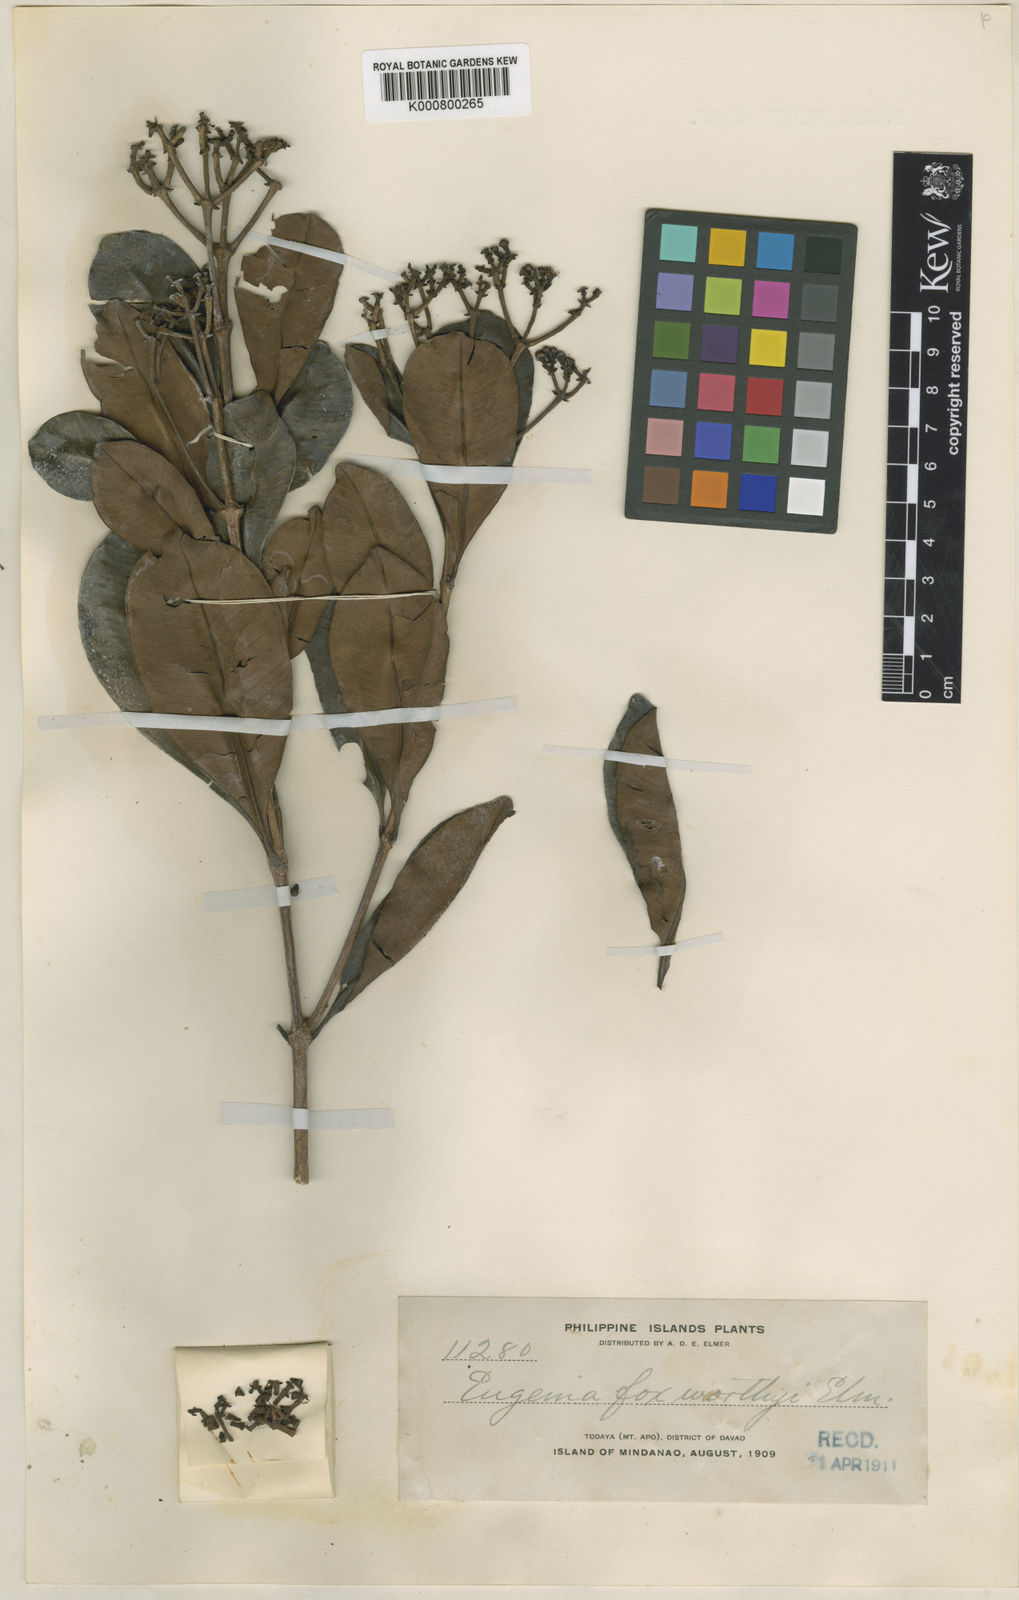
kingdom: Plantae
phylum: Tracheophyta
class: Magnoliopsida
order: Myrtales
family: Myrtaceae
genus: Syzygium
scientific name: Syzygium foxworthyi
